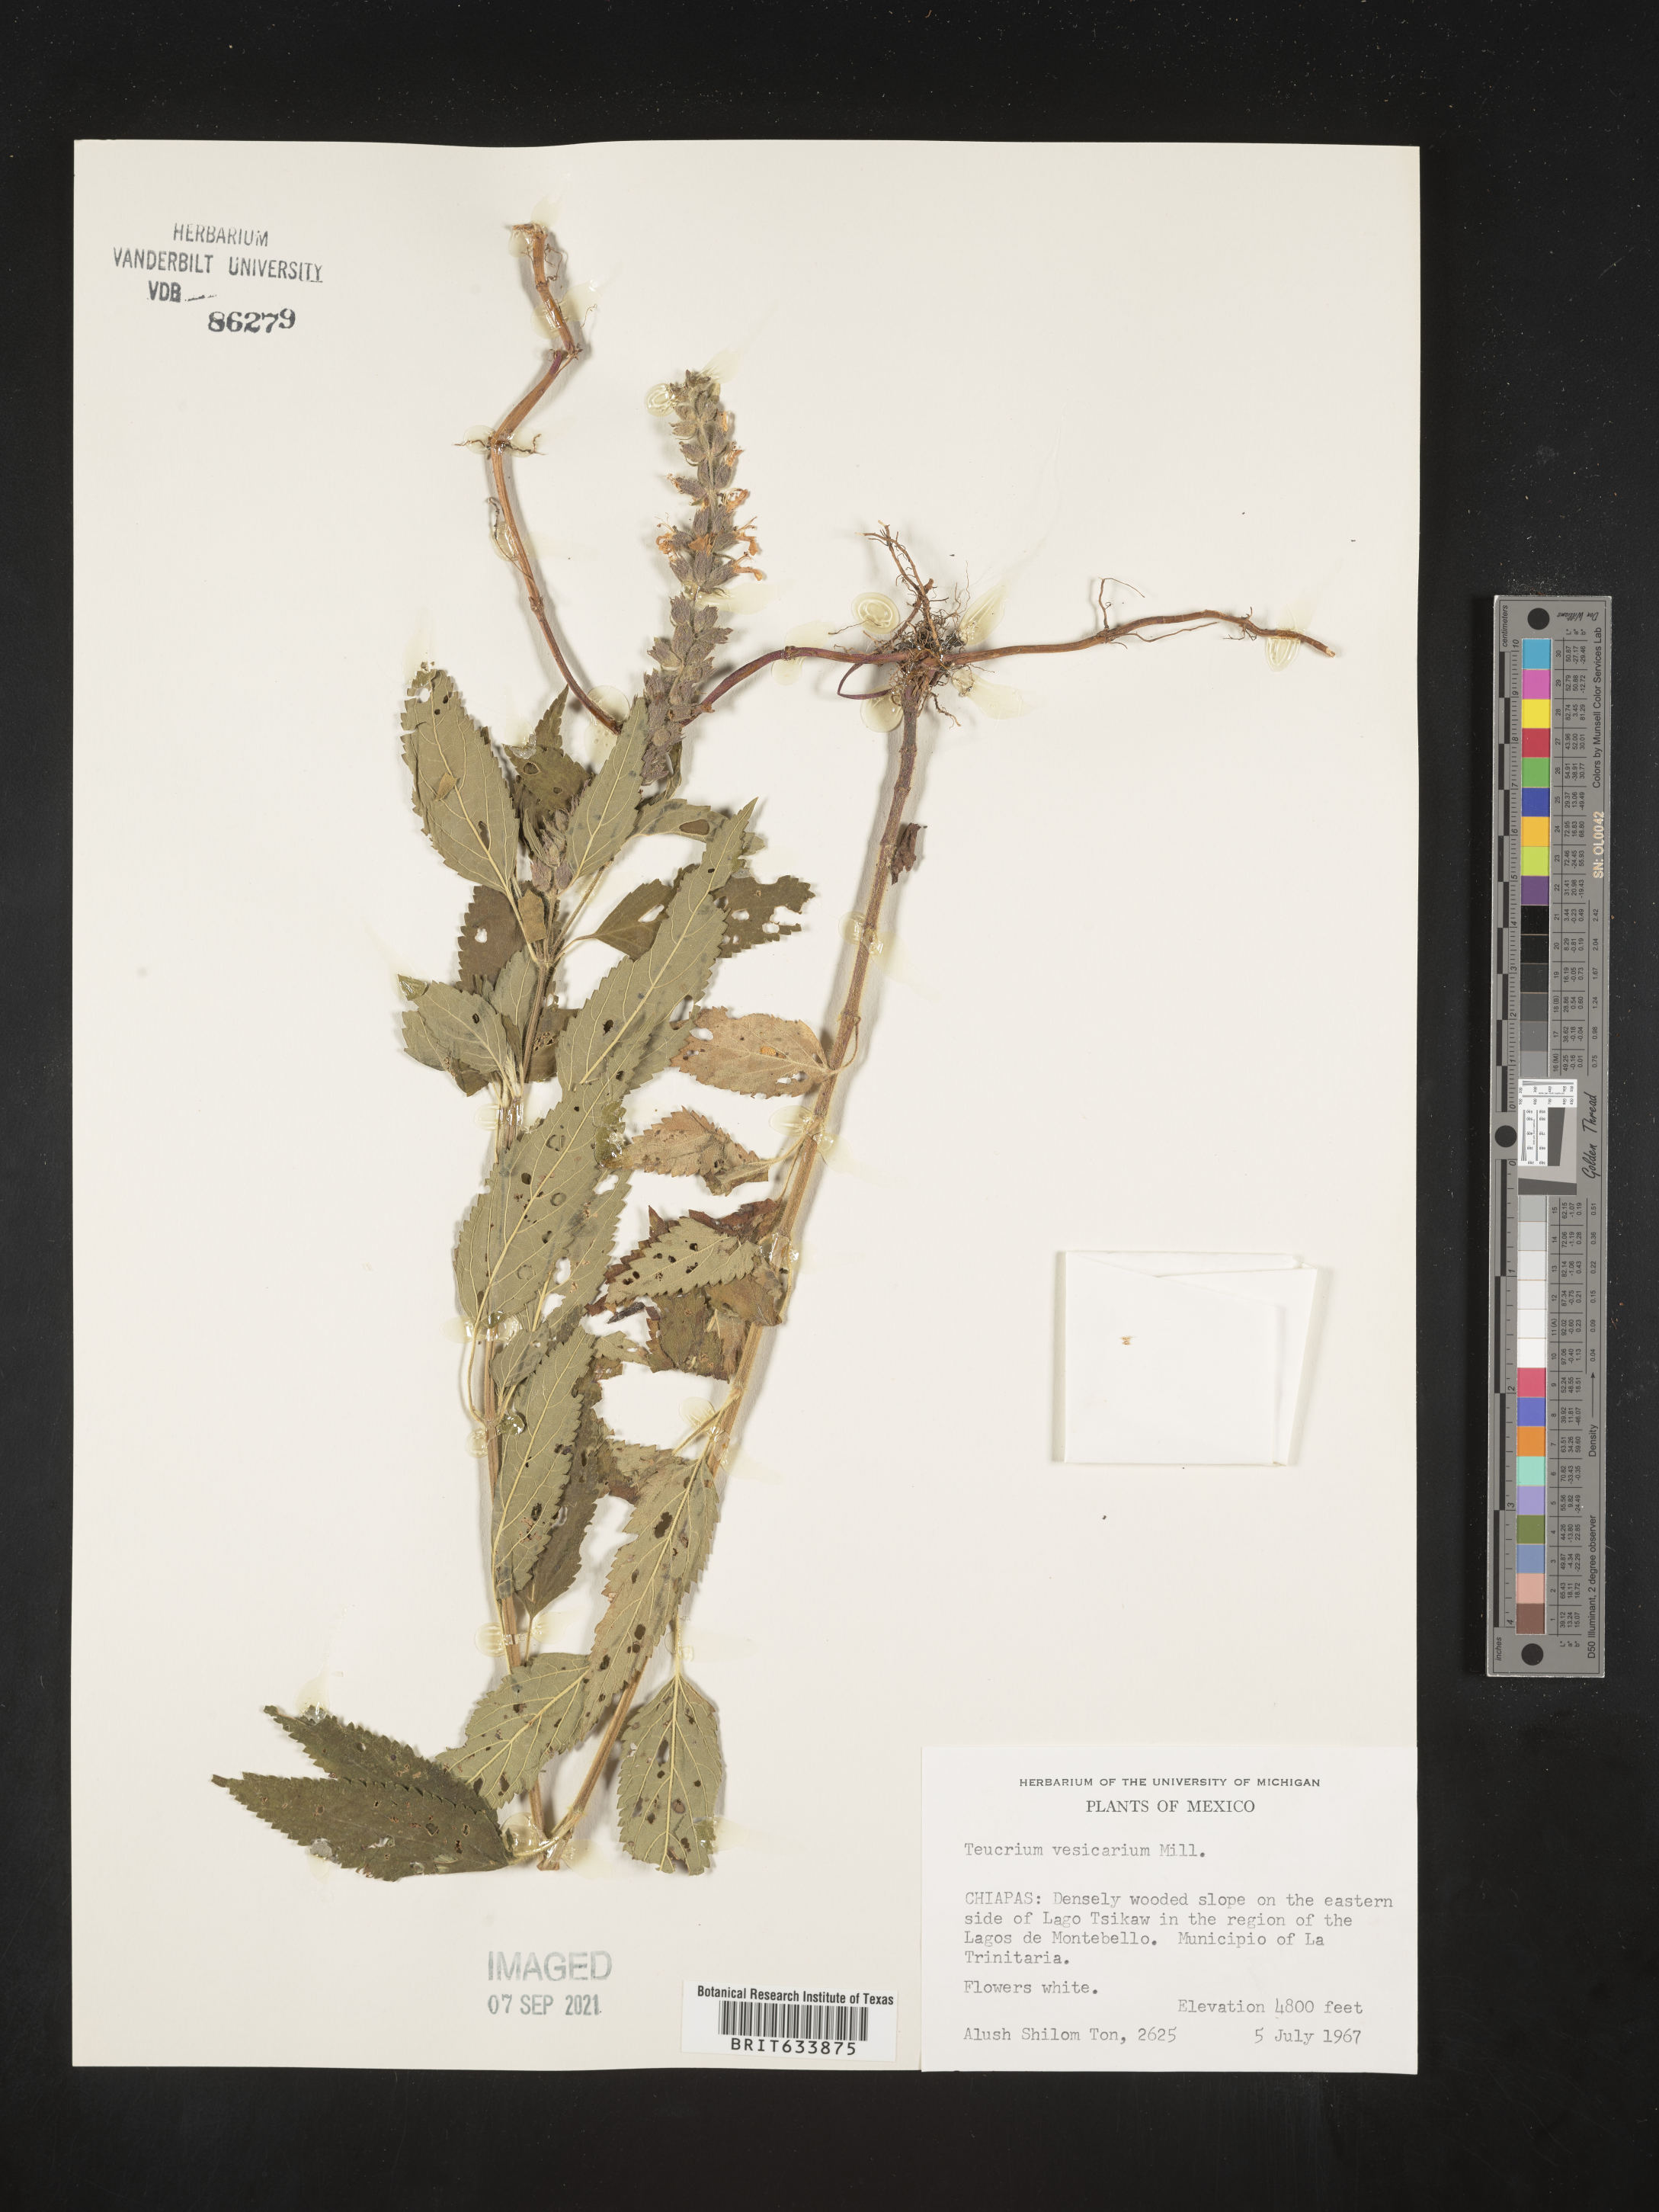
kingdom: Plantae
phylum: Tracheophyta
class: Magnoliopsida
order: Lamiales
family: Lamiaceae
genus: Teucrium
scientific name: Teucrium vesicarium
